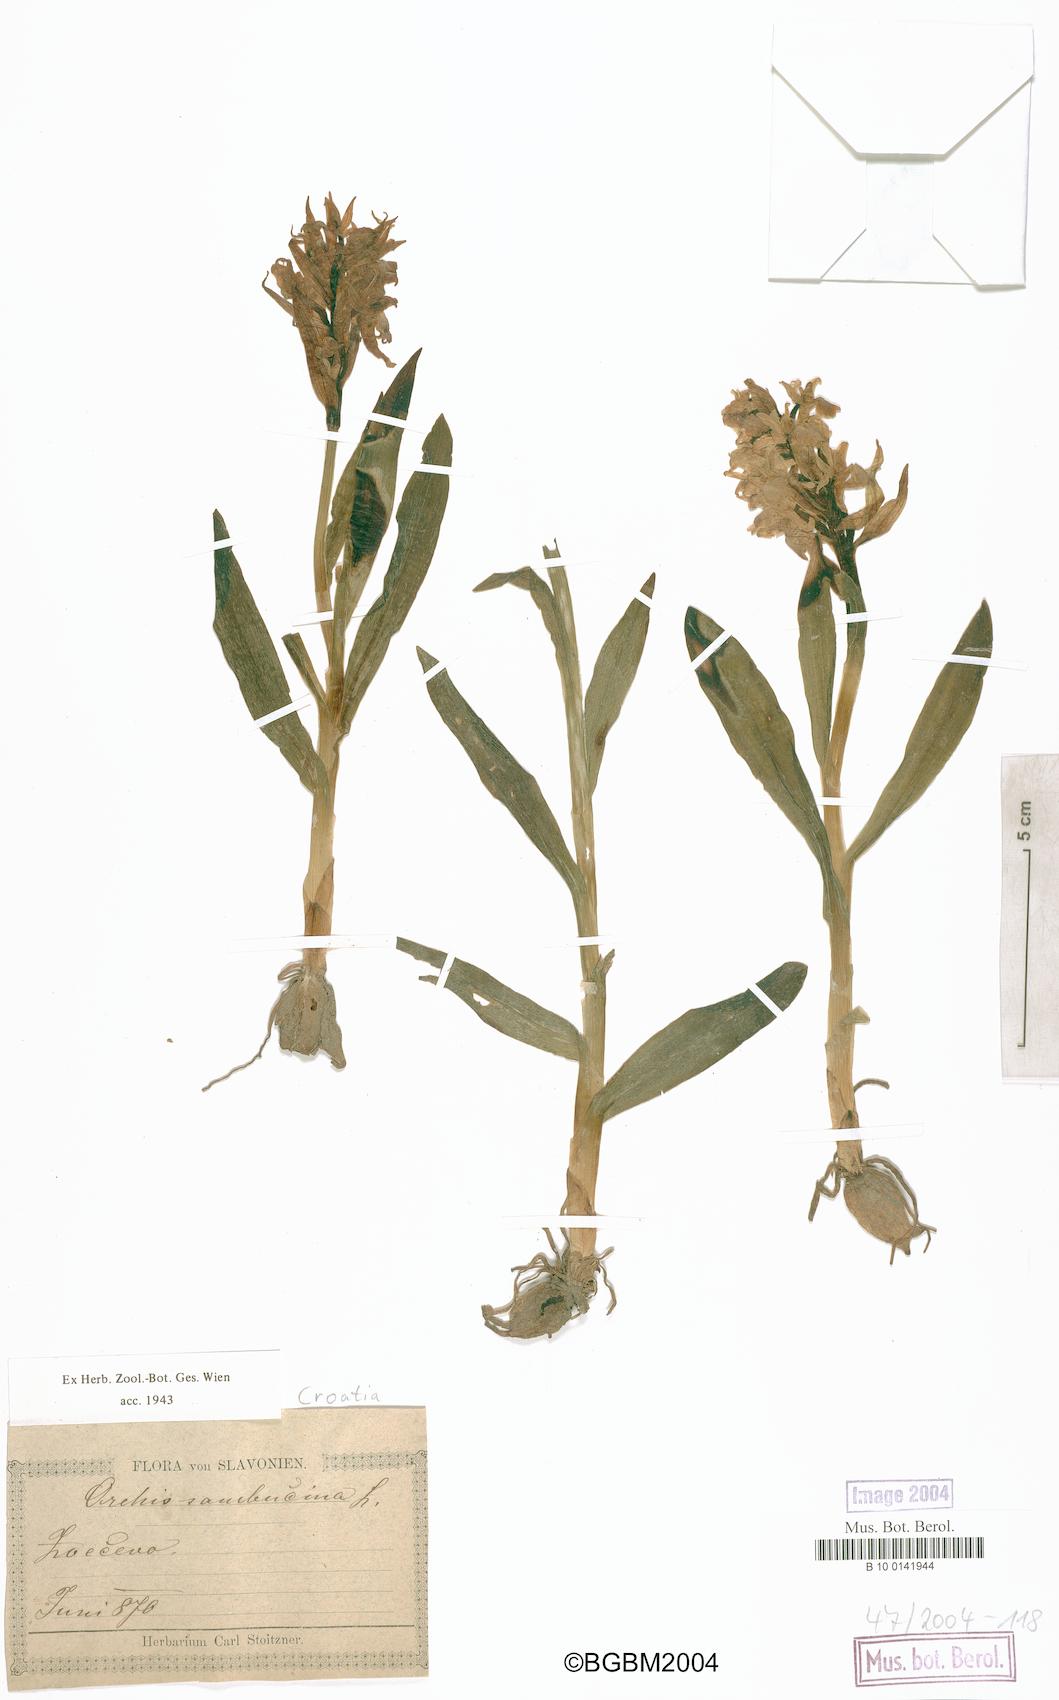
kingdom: Plantae
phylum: Tracheophyta
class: Liliopsida
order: Asparagales
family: Orchidaceae
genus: Dactylorhiza
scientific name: Dactylorhiza sambucina
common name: Elder-flowered orchid
